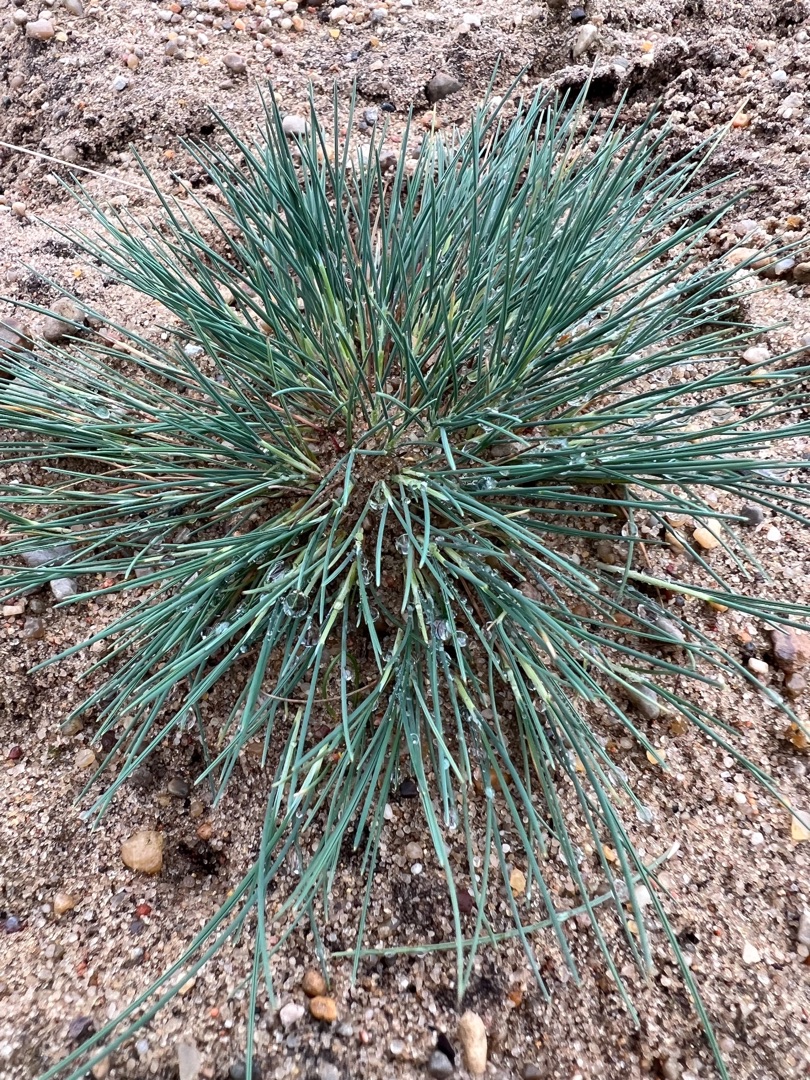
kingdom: Plantae
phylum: Tracheophyta
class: Liliopsida
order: Poales
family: Poaceae
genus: Corynephorus
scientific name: Corynephorus canescens
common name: Sandskæg
